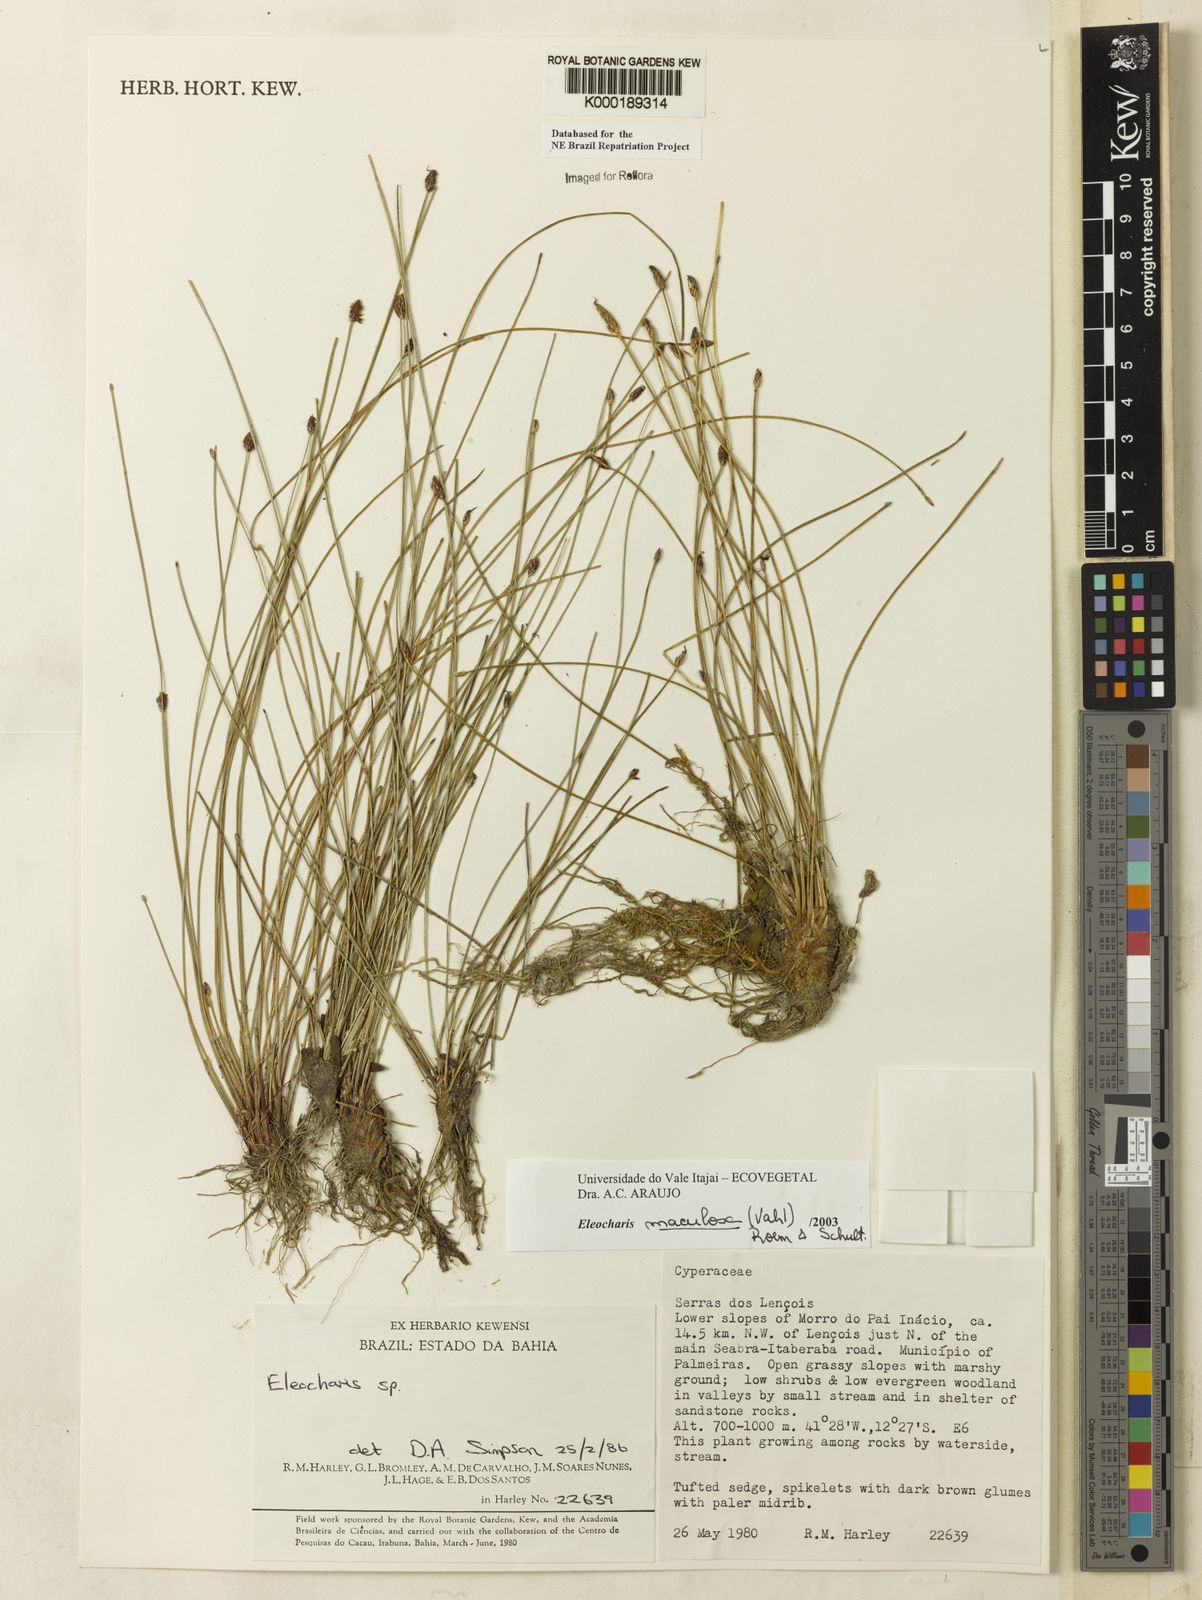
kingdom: Plantae
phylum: Tracheophyta
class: Liliopsida
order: Poales
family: Cyperaceae
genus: Eleocharis
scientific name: Eleocharis maculosa
